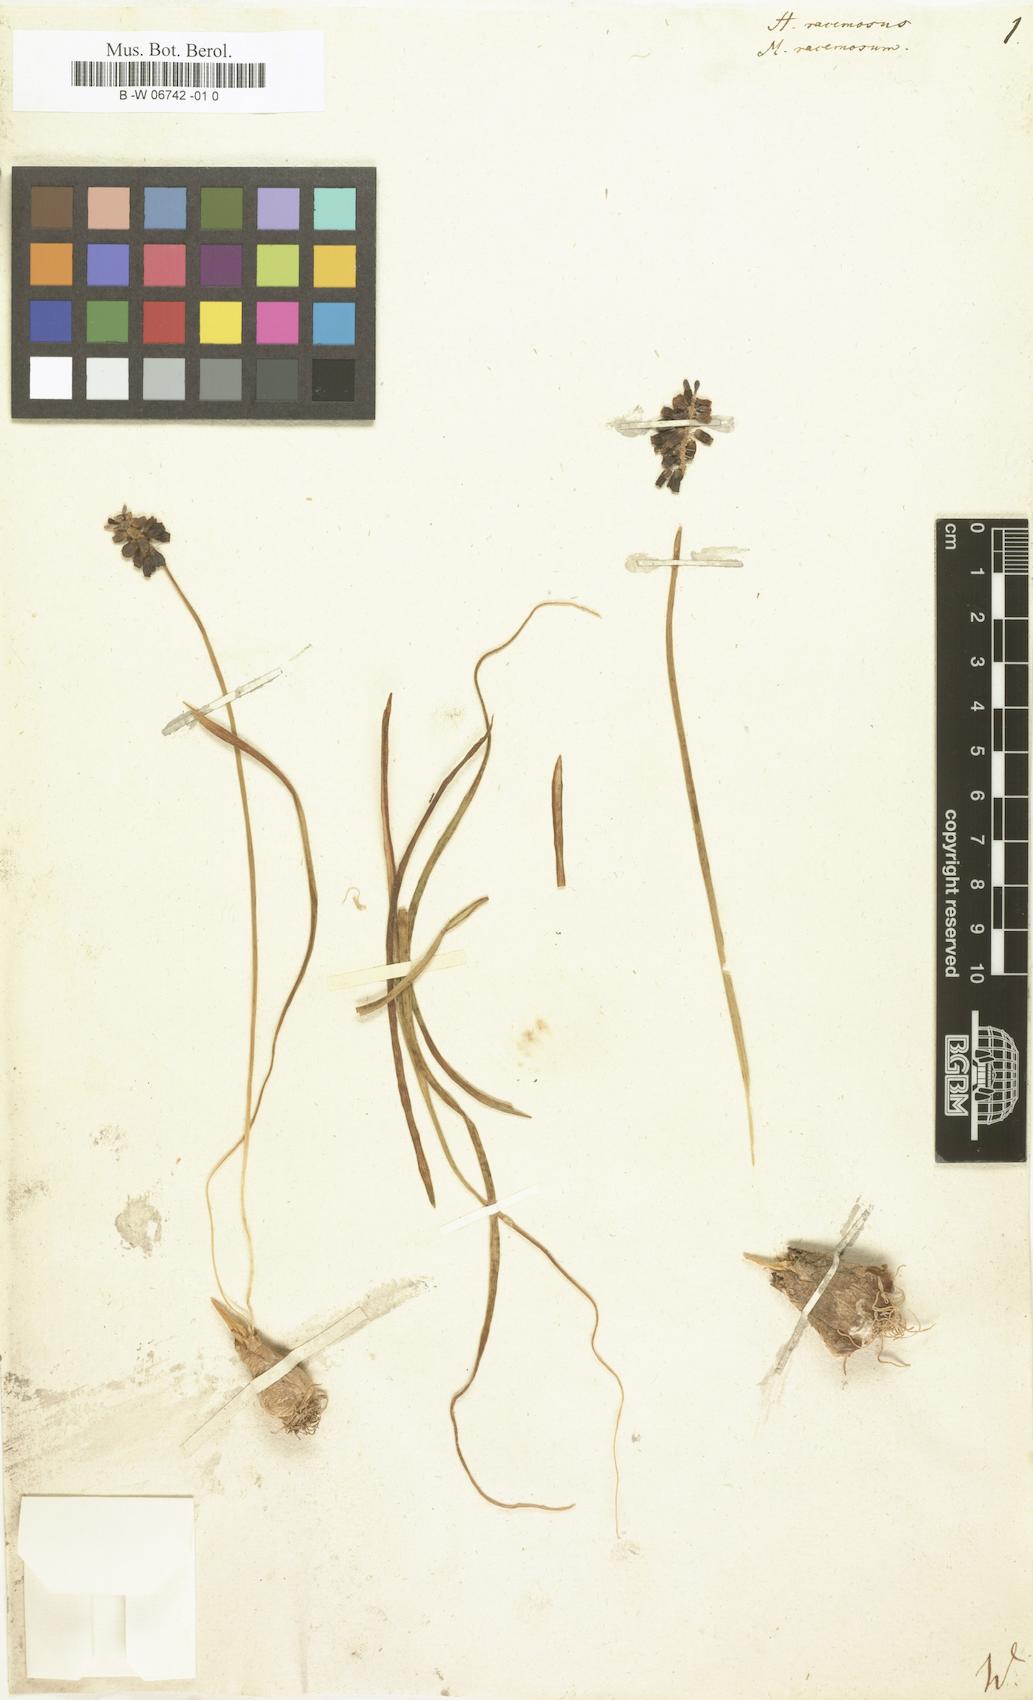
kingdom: Plantae
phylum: Tracheophyta
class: Liliopsida
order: Asparagales
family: Asparagaceae
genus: Muscari
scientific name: Muscari neglectum
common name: Grape-hyacinth
